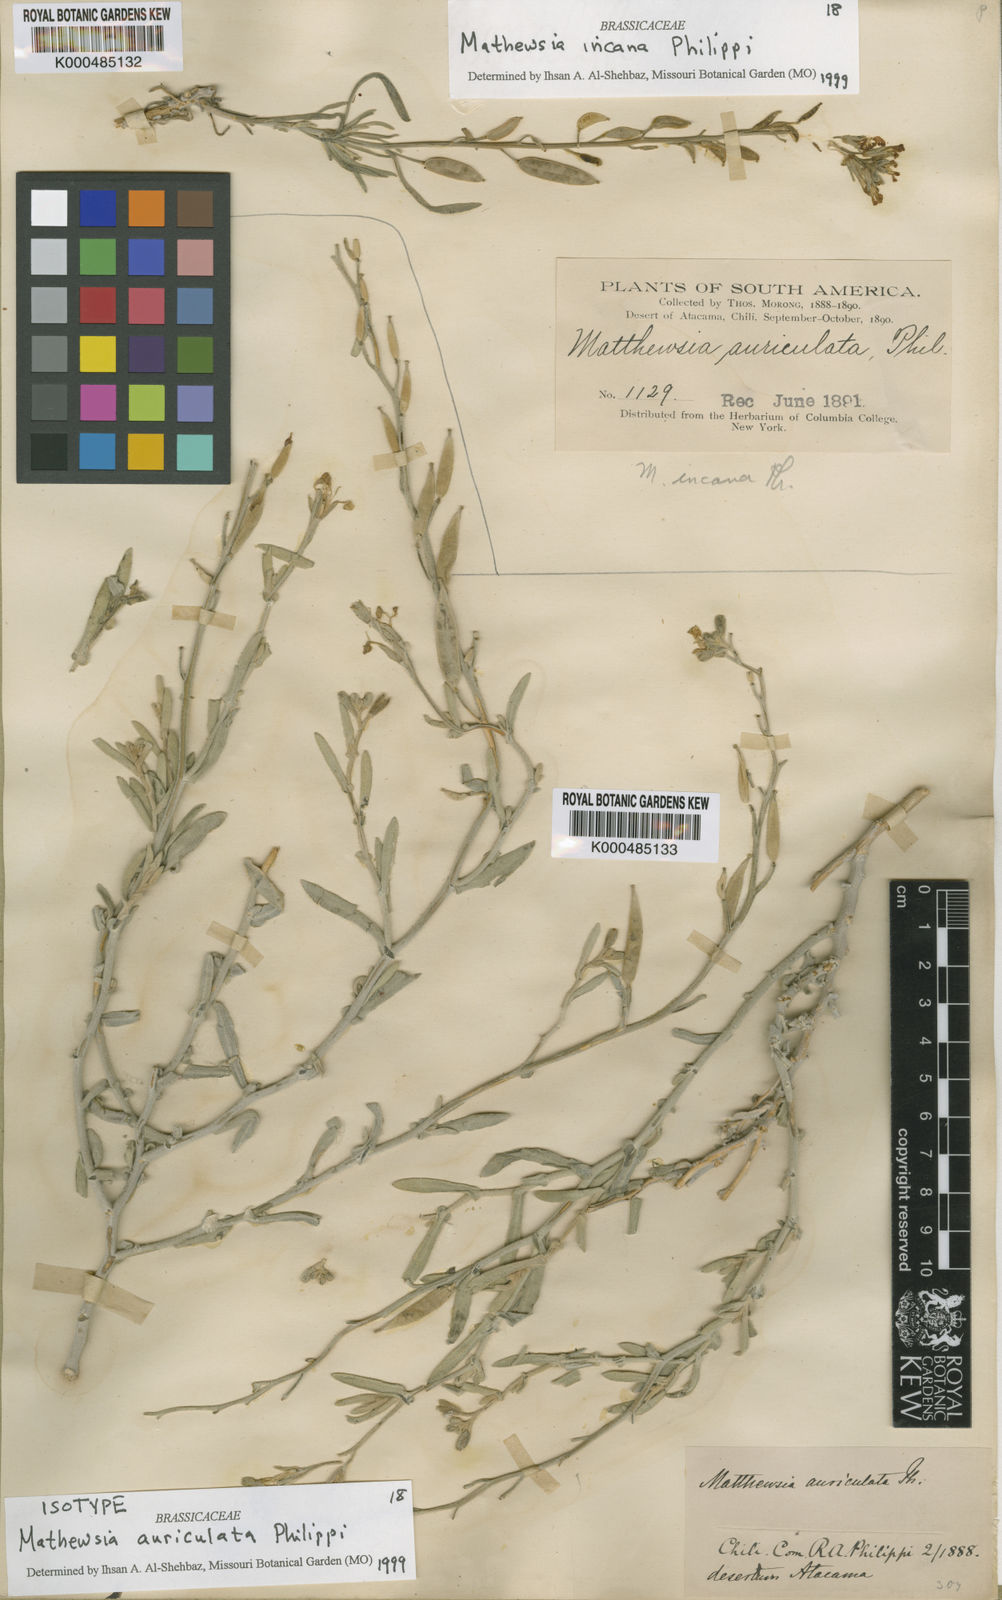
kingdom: Plantae
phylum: Tracheophyta
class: Magnoliopsida
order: Brassicales
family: Brassicaceae
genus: Mathewsia
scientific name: Mathewsia auriculata
